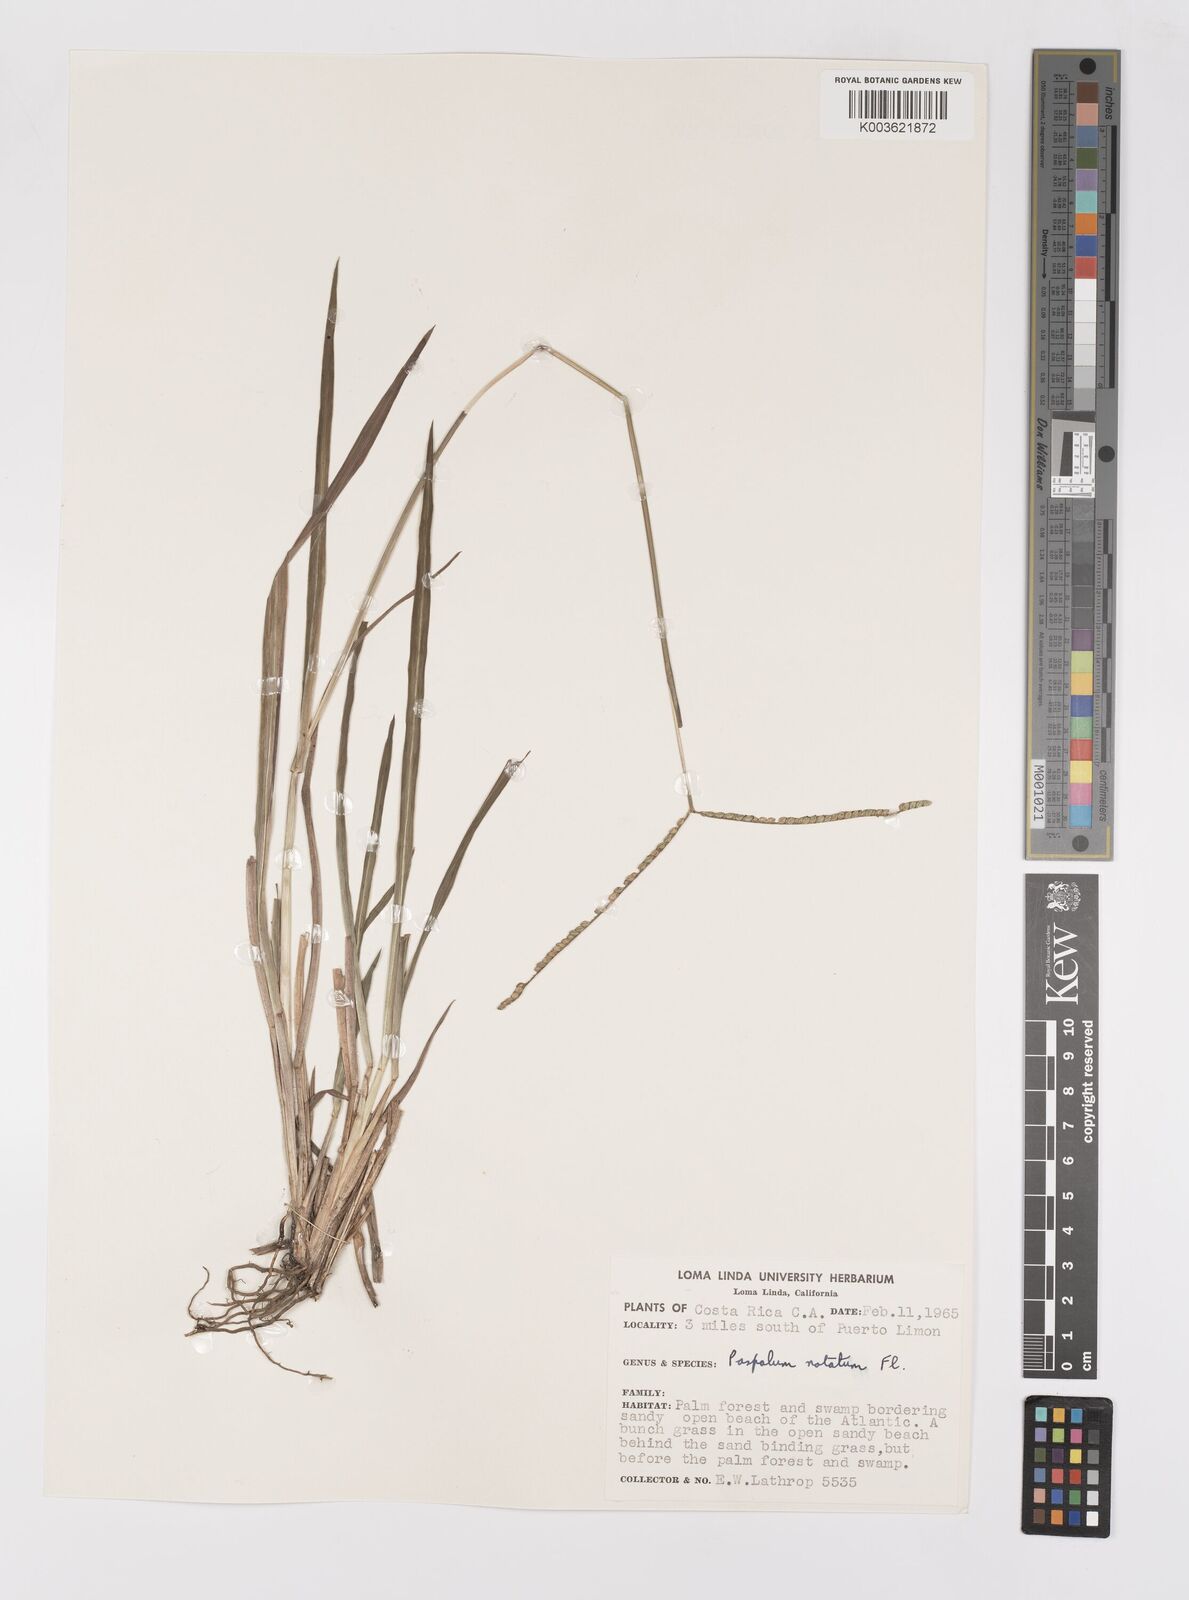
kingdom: Plantae
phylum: Tracheophyta
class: Liliopsida
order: Poales
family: Poaceae
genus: Paspalum
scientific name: Paspalum minus
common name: Matted paspalum
